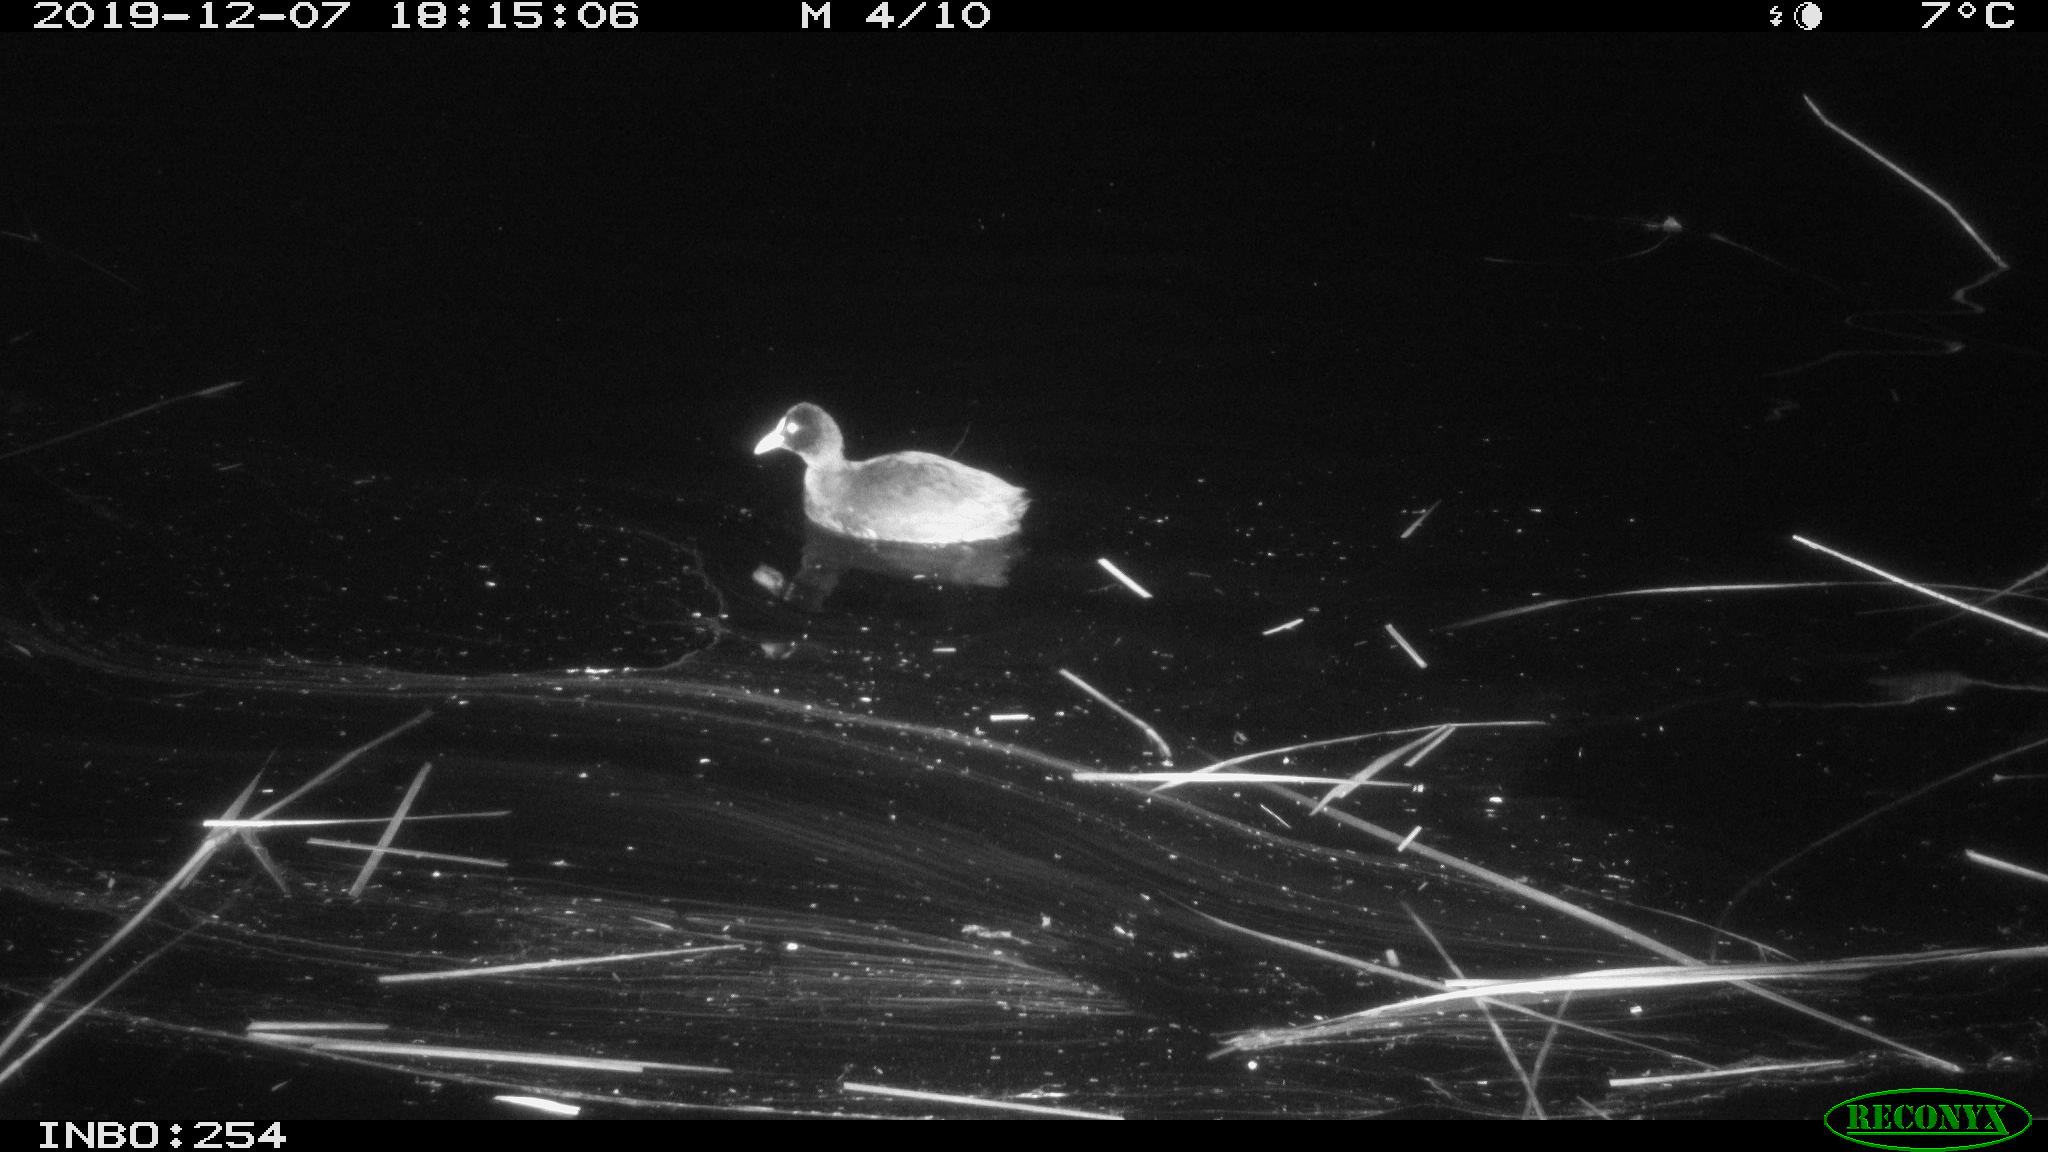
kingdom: Animalia
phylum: Chordata
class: Aves
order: Gruiformes
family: Rallidae
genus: Fulica
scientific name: Fulica atra
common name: Eurasian coot
